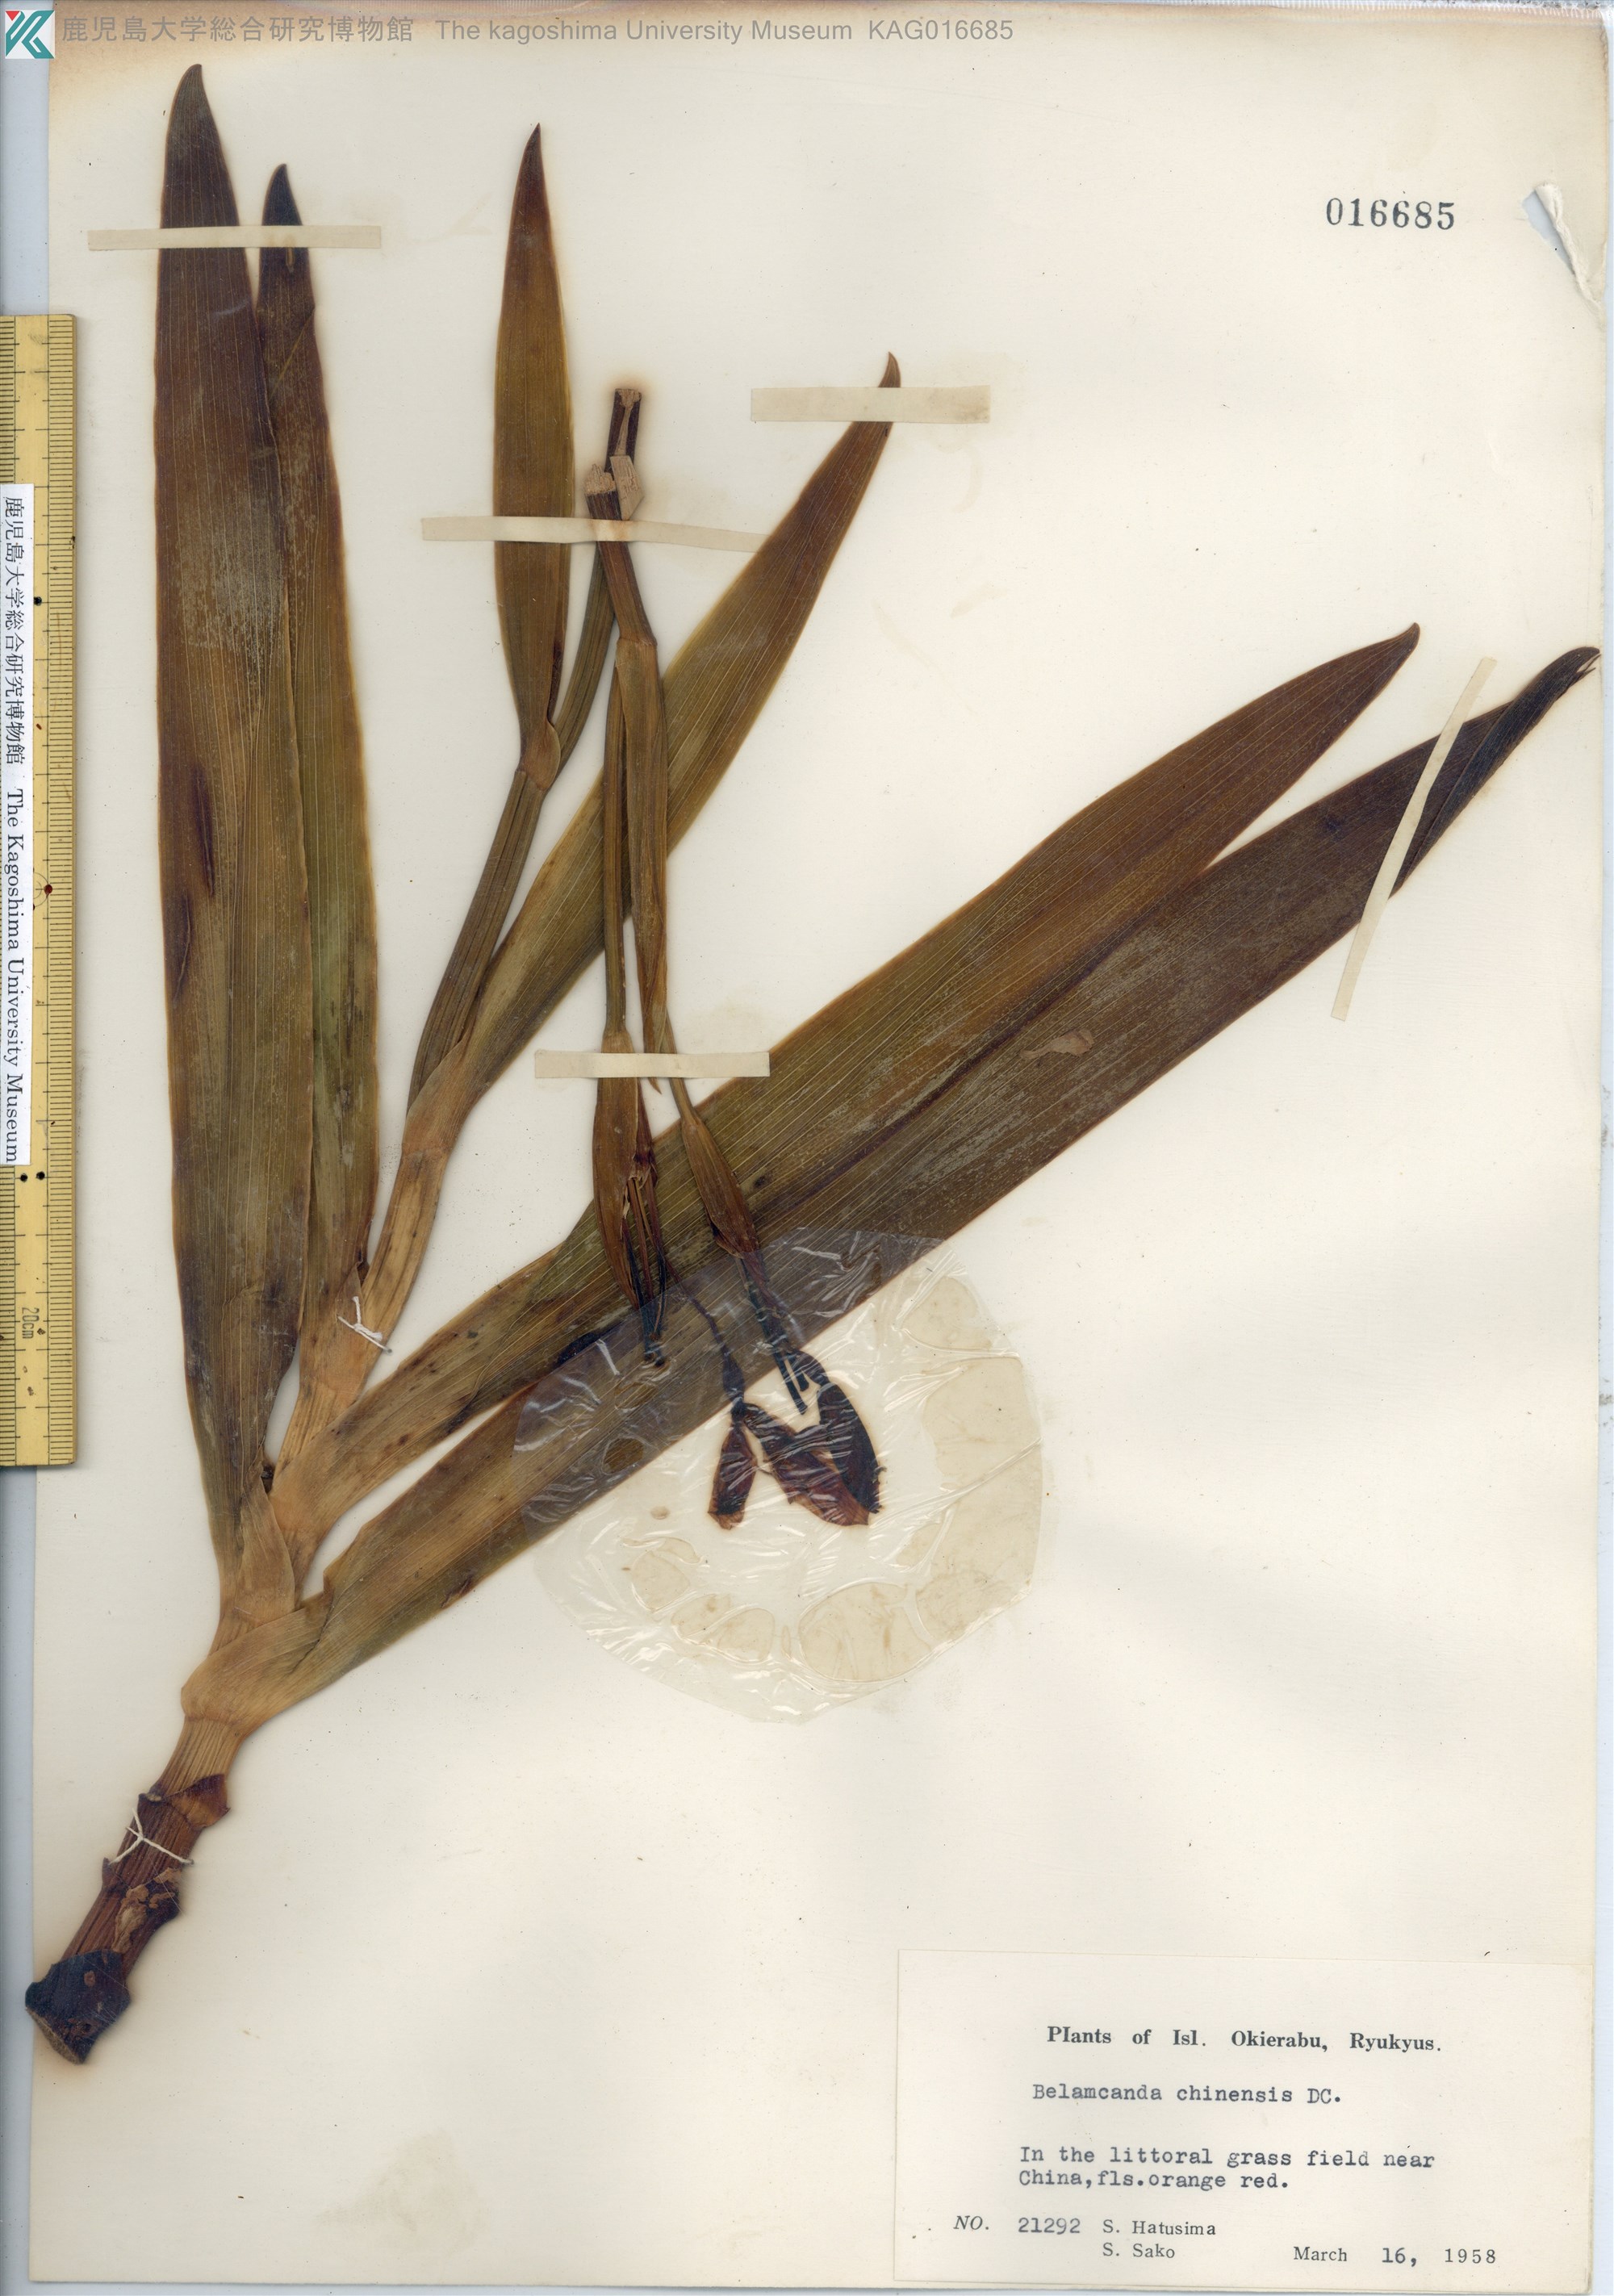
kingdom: Plantae
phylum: Tracheophyta
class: Liliopsida
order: Asparagales
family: Iridaceae
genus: Iris
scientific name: Iris domestica
